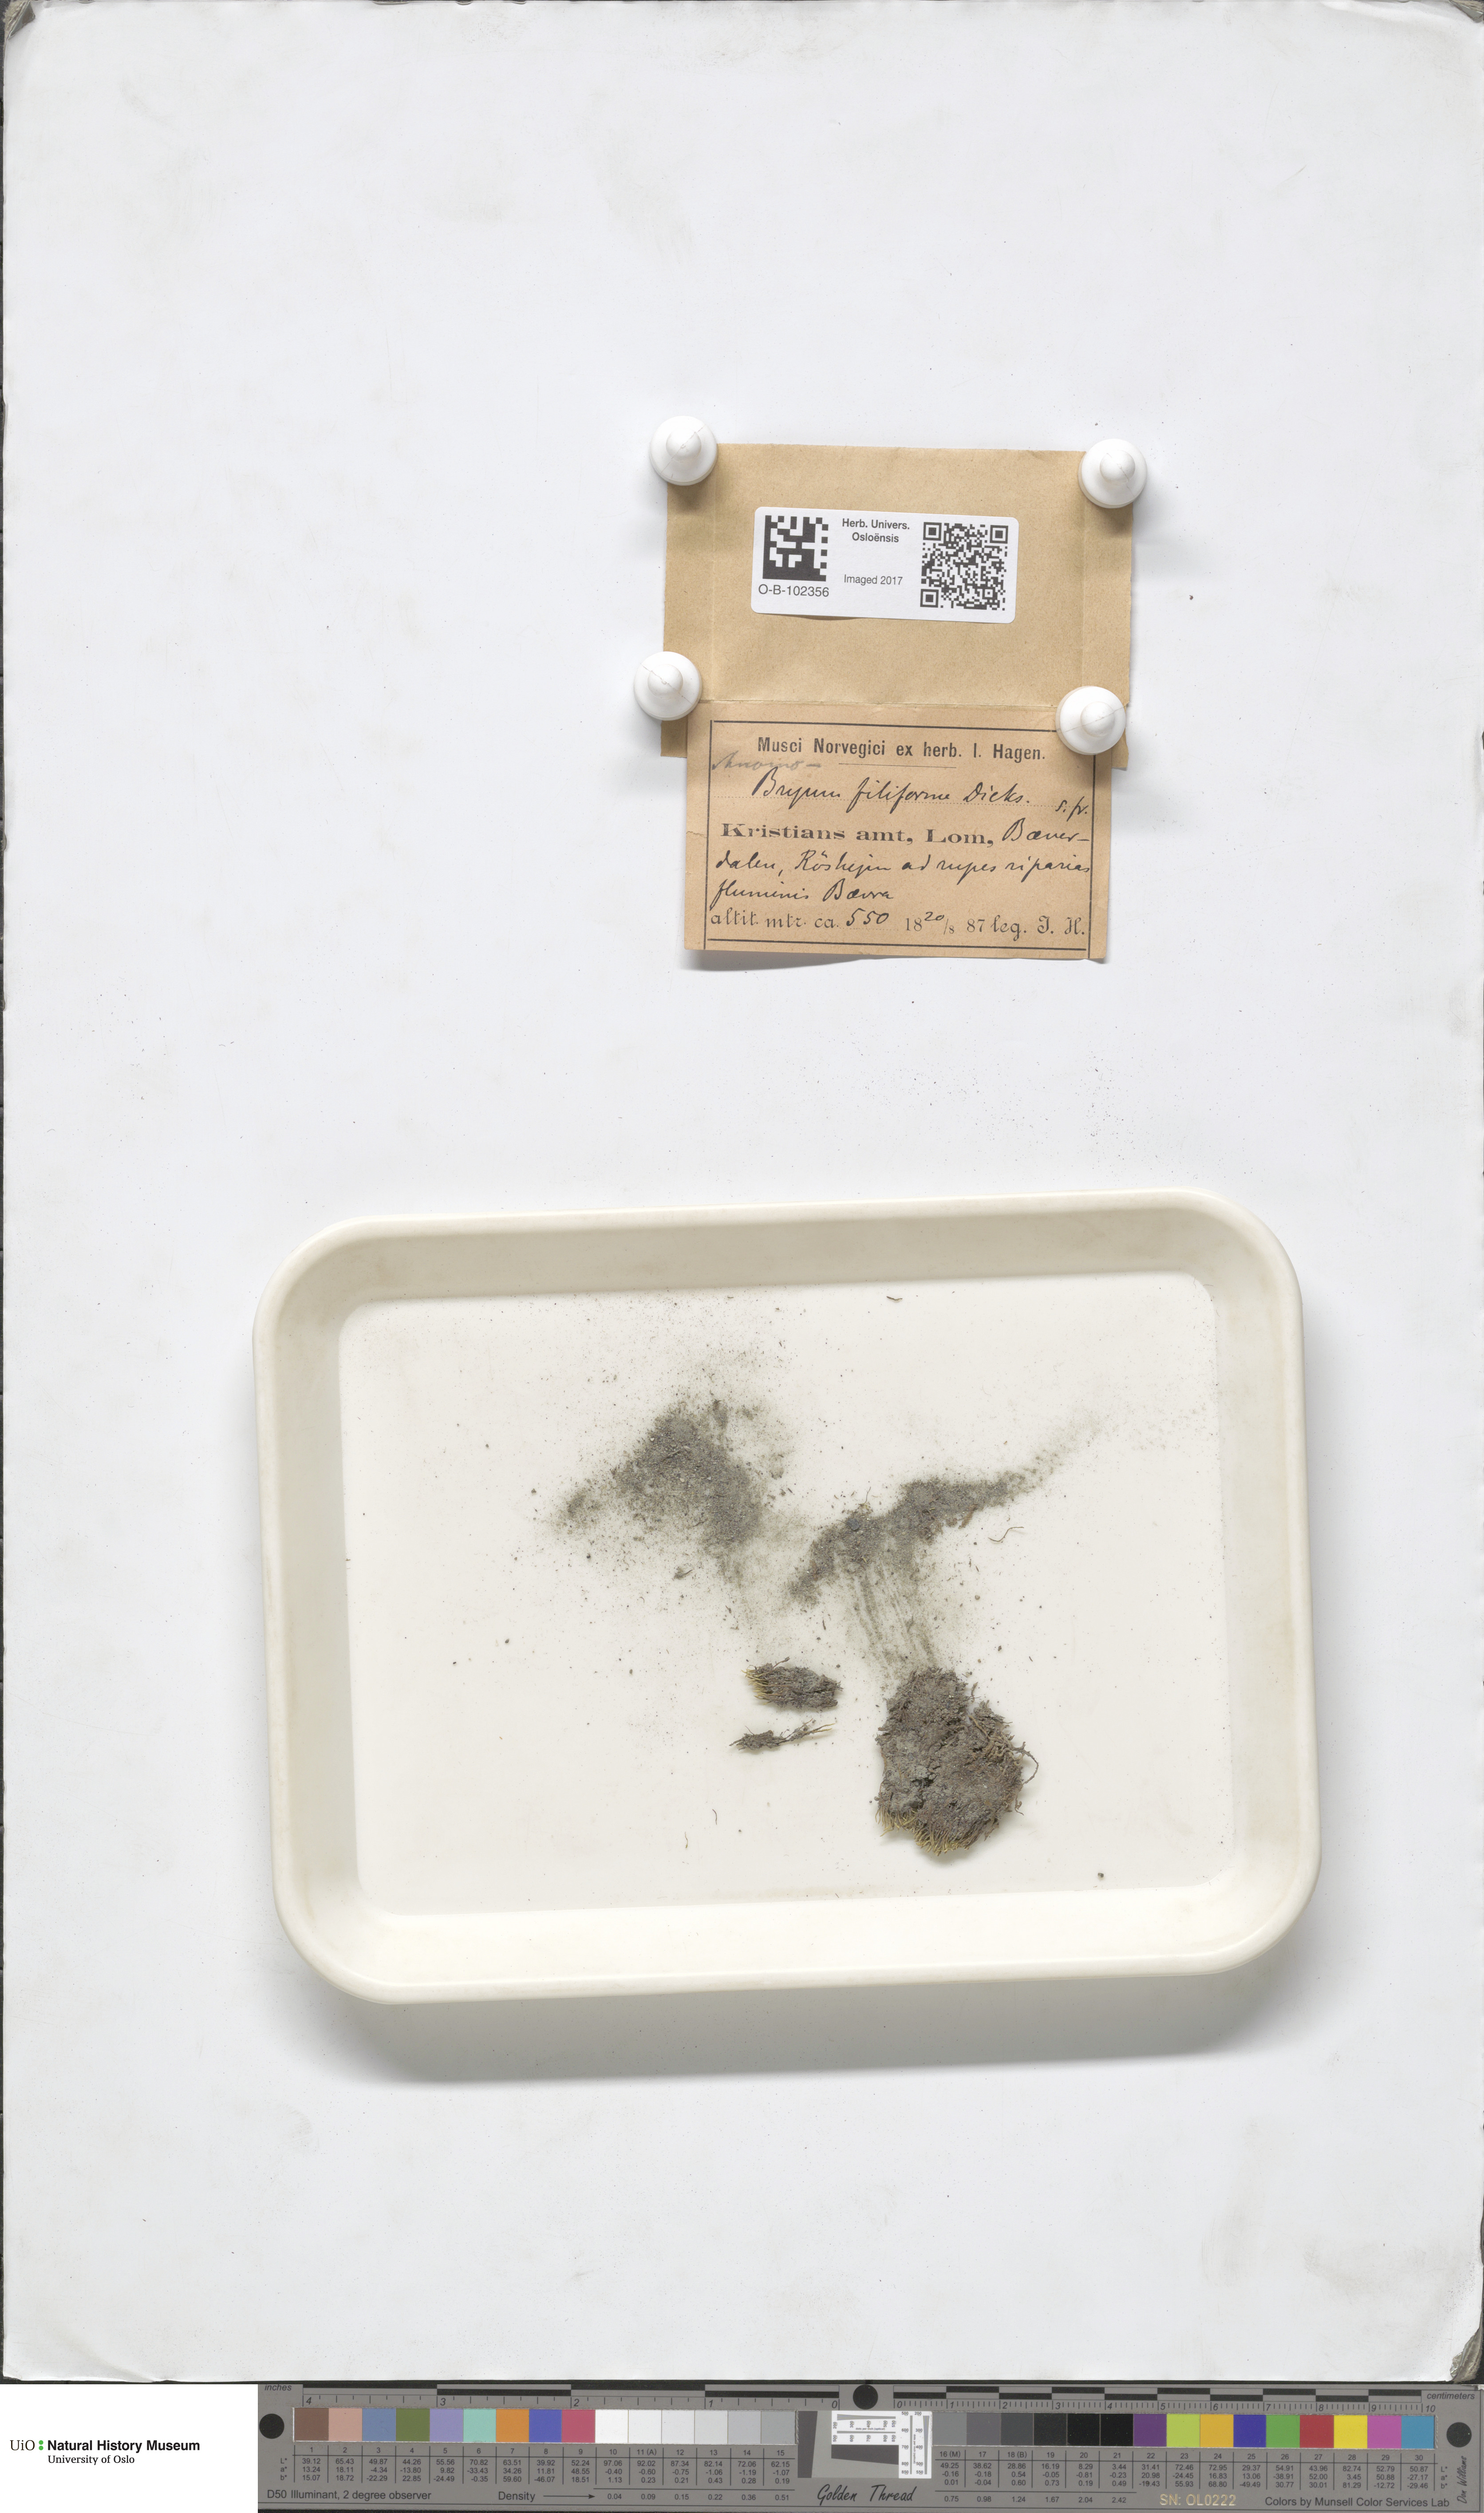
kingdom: Plantae
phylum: Bryophyta
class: Bryopsida
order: Bryales
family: Bryaceae
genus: Anomobryum
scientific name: Anomobryum julaceum
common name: Slender silver moss
